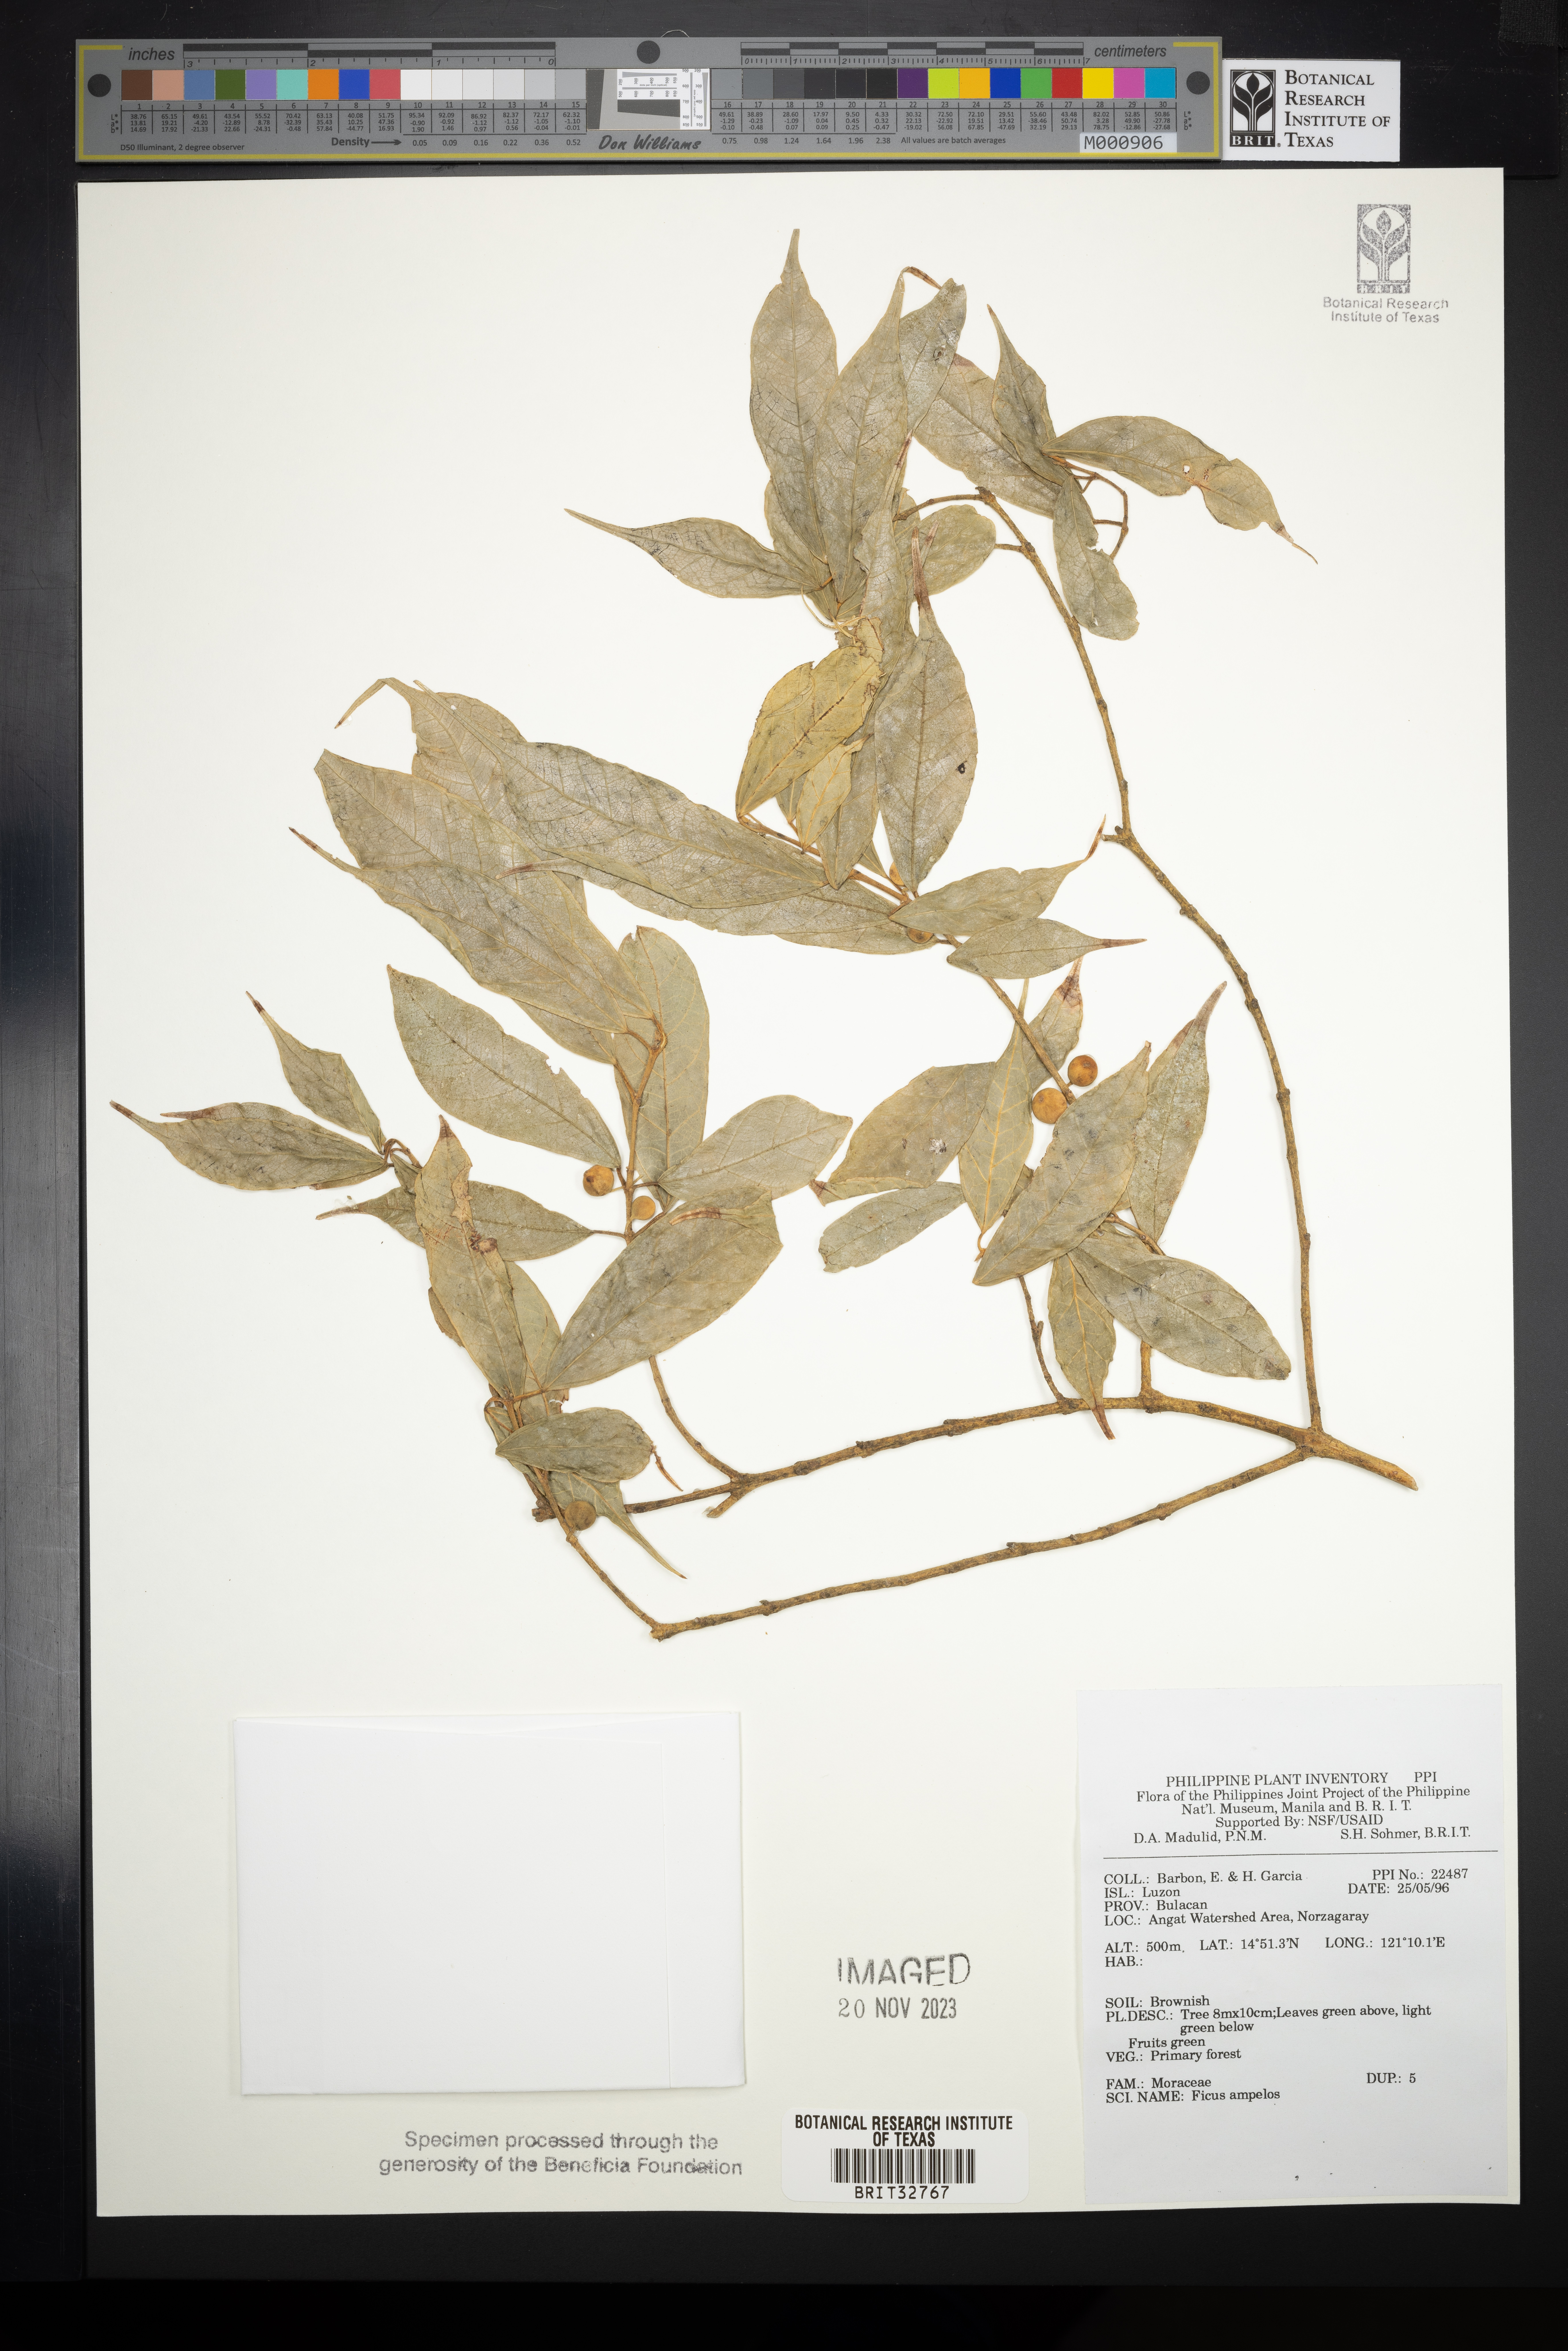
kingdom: Plantae
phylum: Tracheophyta
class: Magnoliopsida
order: Rosales
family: Moraceae
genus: Ficus
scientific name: Ficus ampelos
